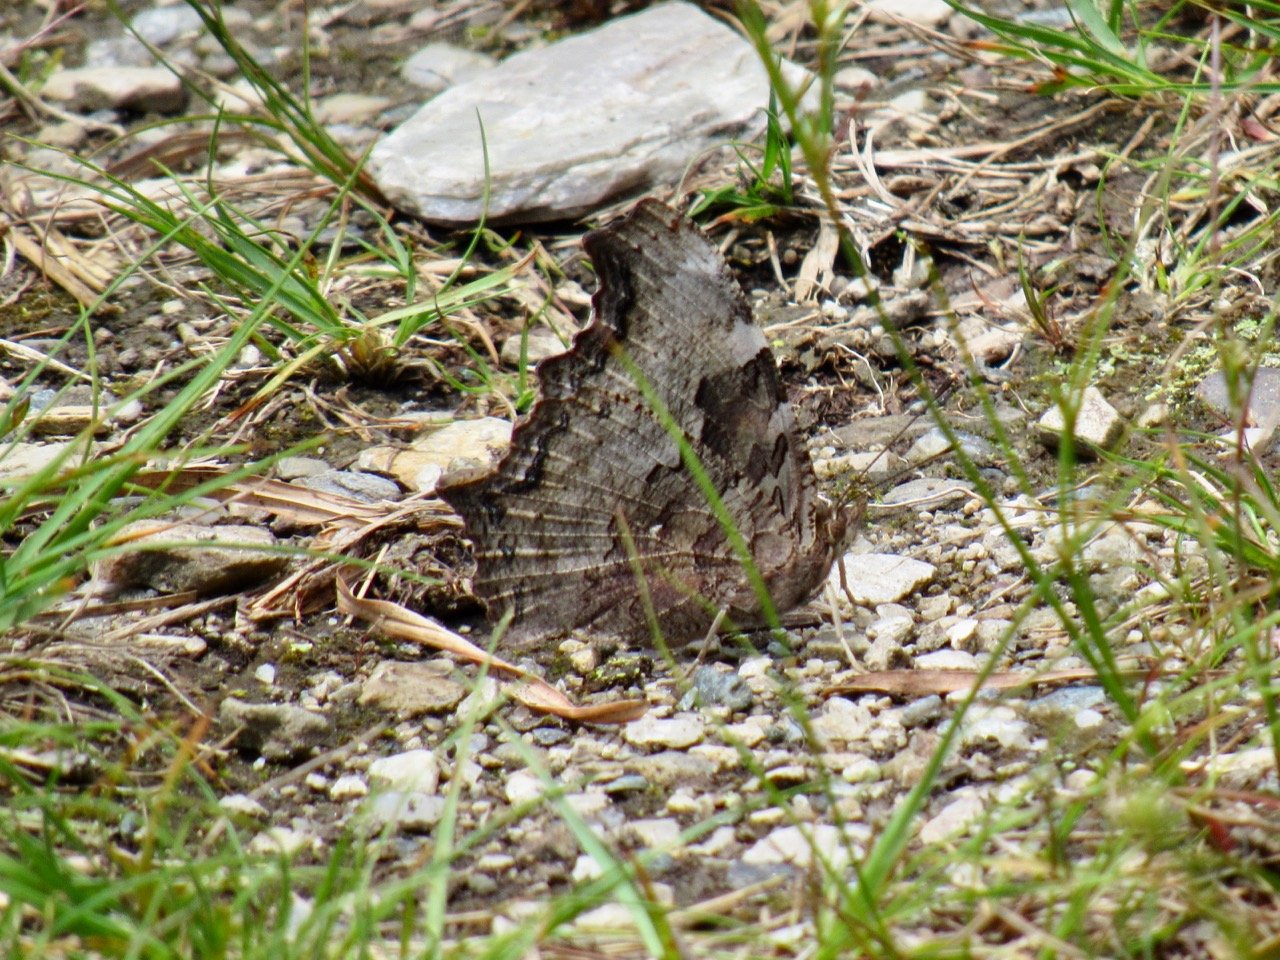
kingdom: Animalia
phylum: Arthropoda
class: Insecta
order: Lepidoptera
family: Nymphalidae
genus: Polygonia
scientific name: Polygonia vaualbum
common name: Compton Tortoiseshell
